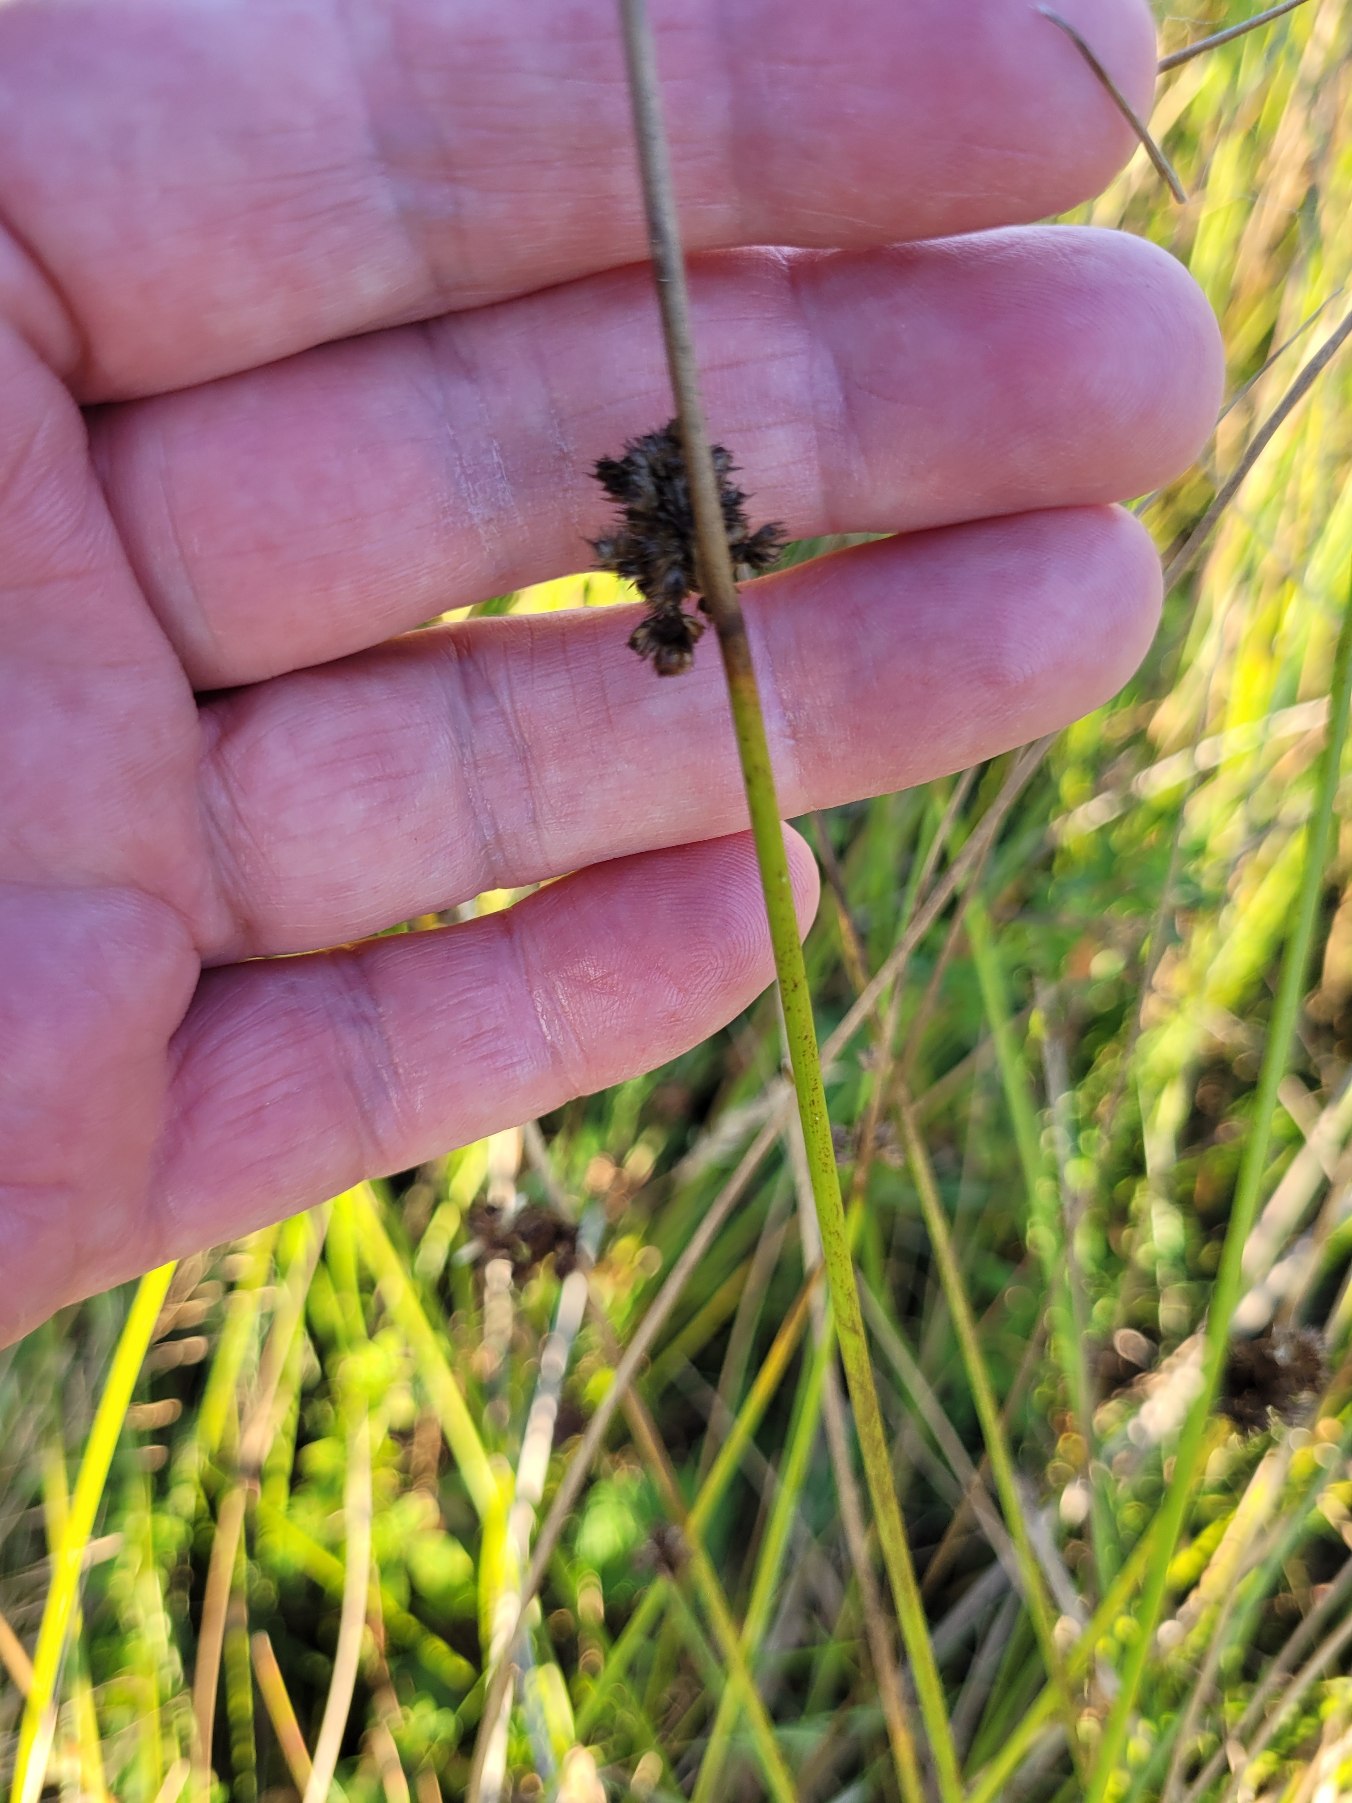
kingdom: Plantae
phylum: Tracheophyta
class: Liliopsida
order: Poales
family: Juncaceae
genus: Juncus
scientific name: Juncus effusus
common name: Lyse-siv
